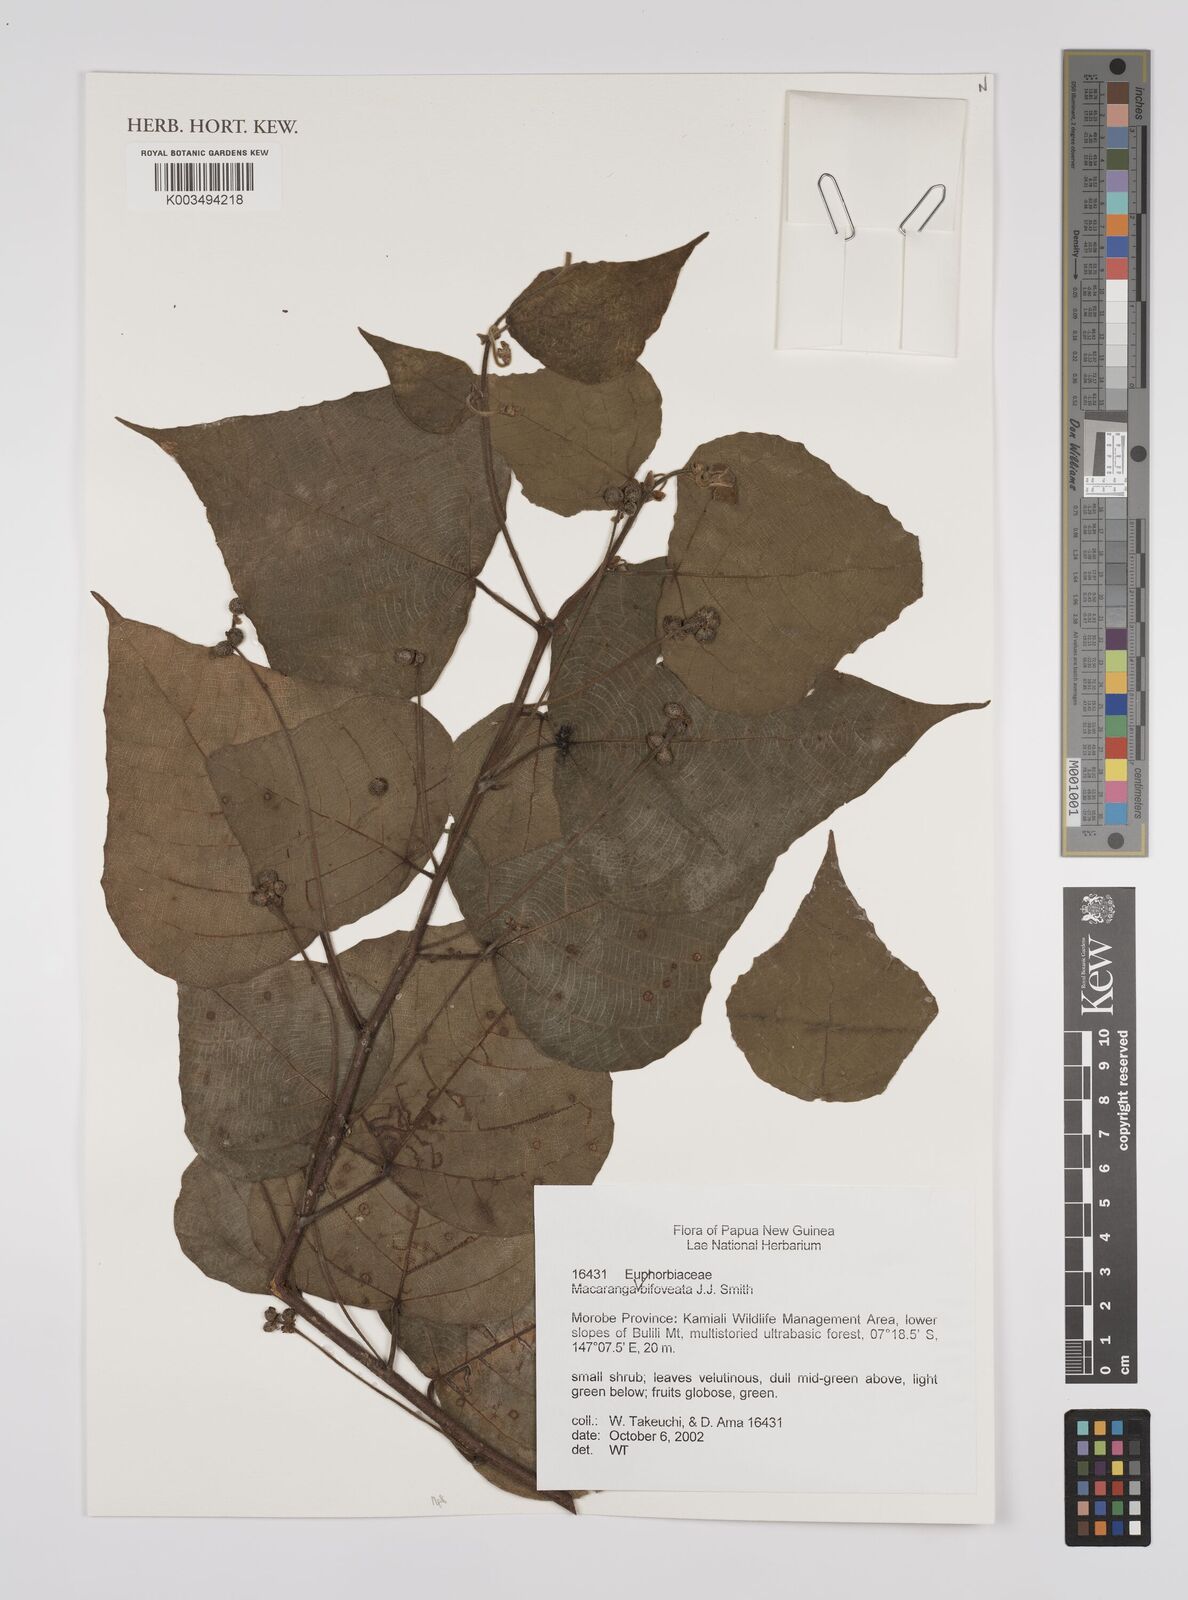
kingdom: Plantae
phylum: Tracheophyta
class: Magnoliopsida
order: Malpighiales
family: Euphorbiaceae
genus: Macaranga
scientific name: Macaranga bifoveata
